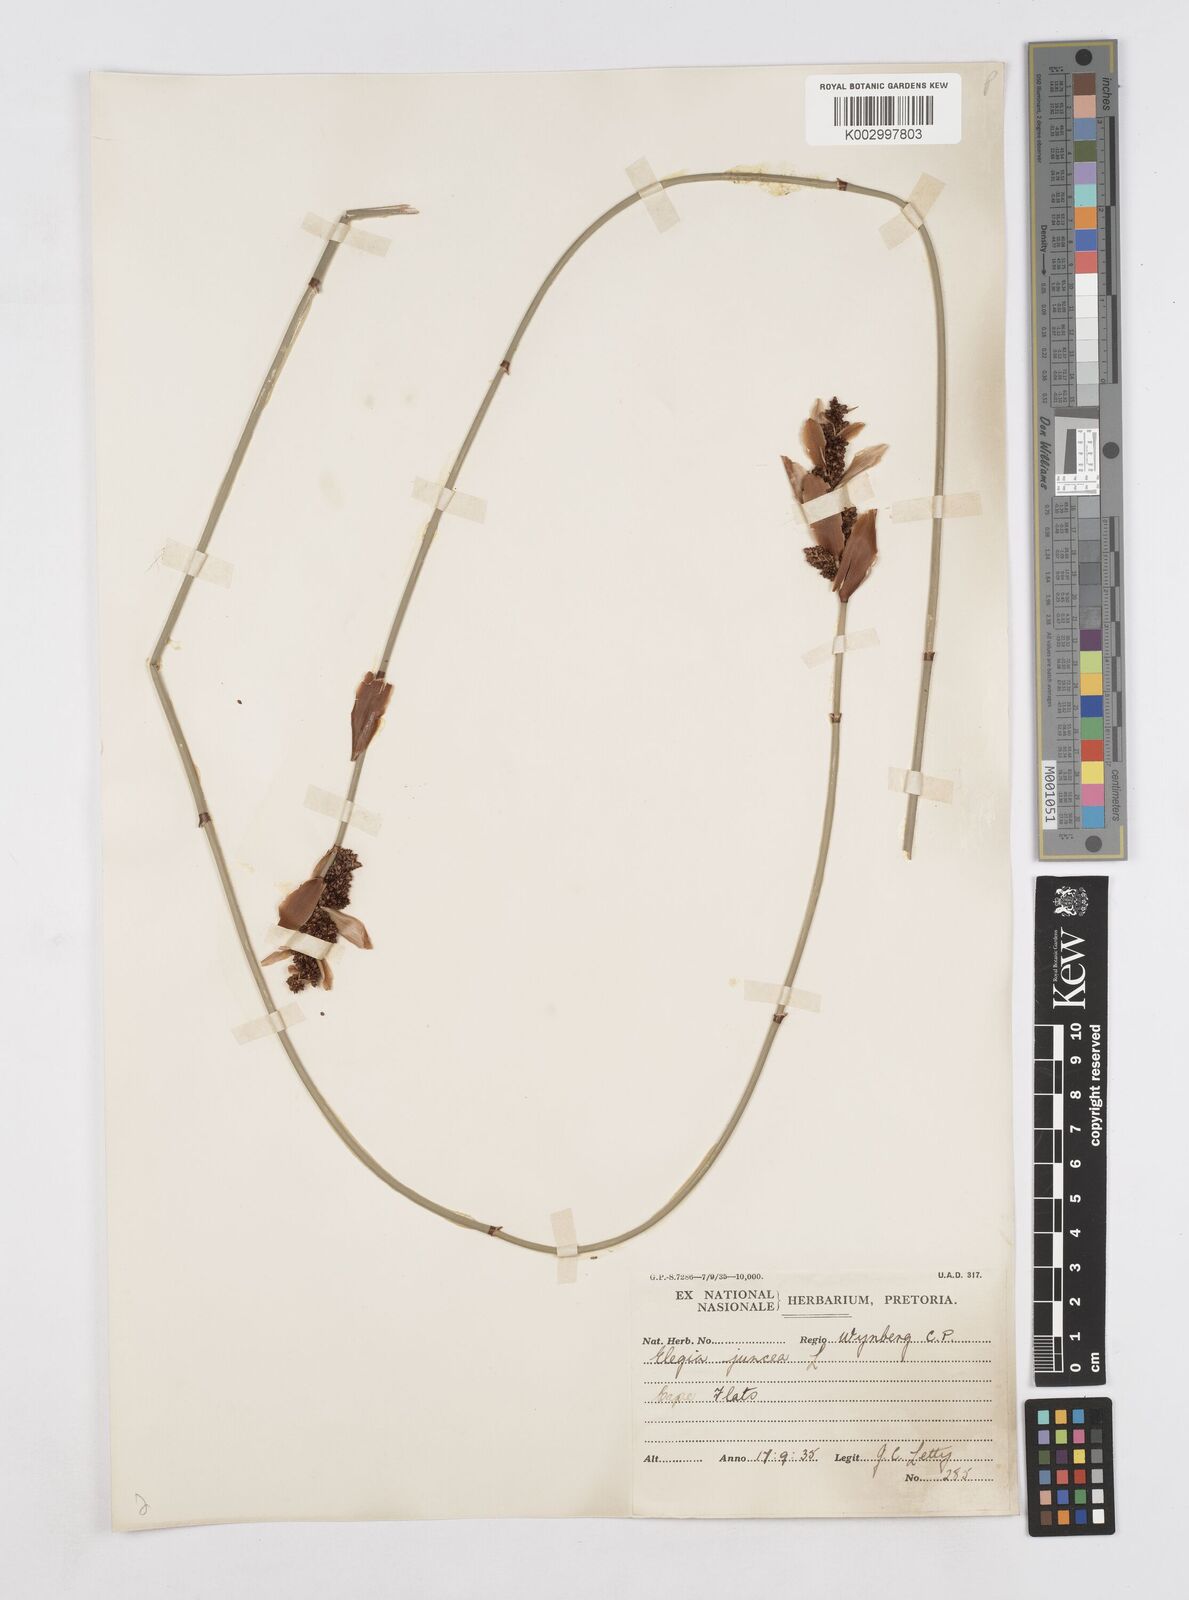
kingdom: Plantae
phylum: Tracheophyta
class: Liliopsida
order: Poales
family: Restionaceae
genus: Elegia
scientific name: Elegia juncea
